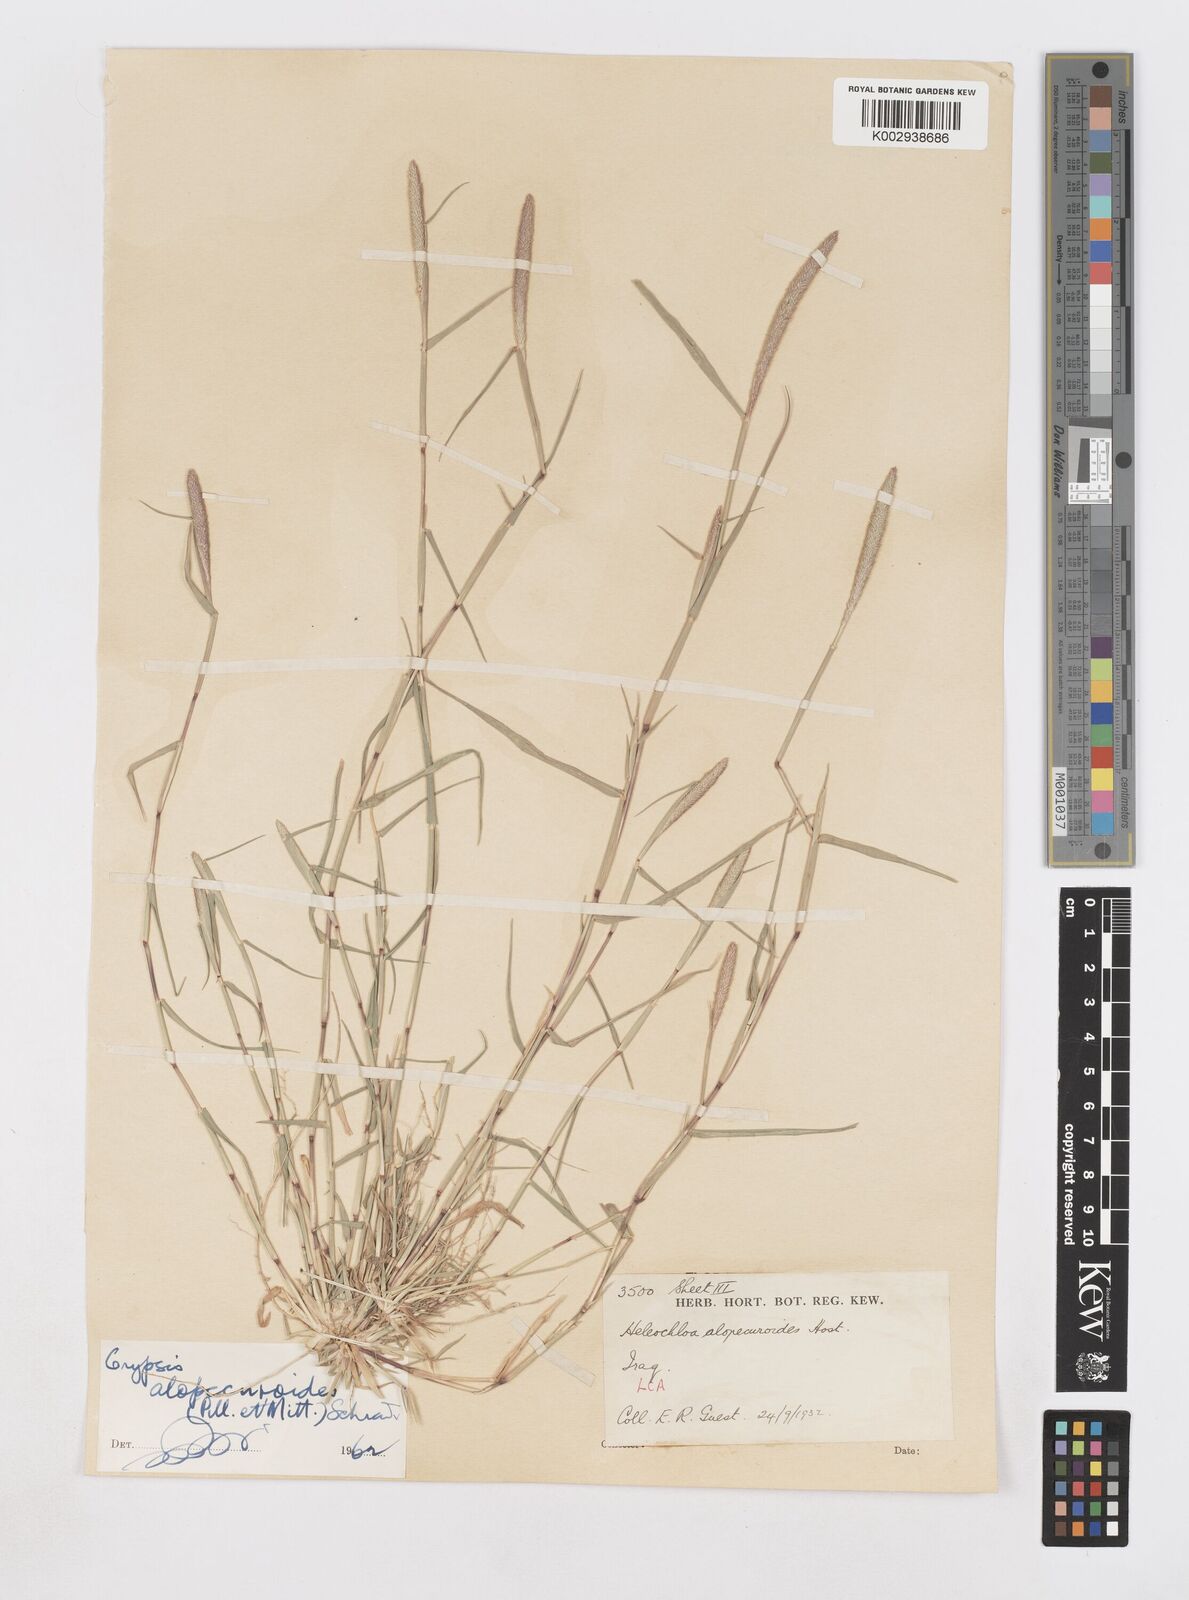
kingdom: Plantae
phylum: Tracheophyta
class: Liliopsida
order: Poales
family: Poaceae
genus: Sporobolus
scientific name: Sporobolus alopecuroides
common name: Foxtail pricklegrass
